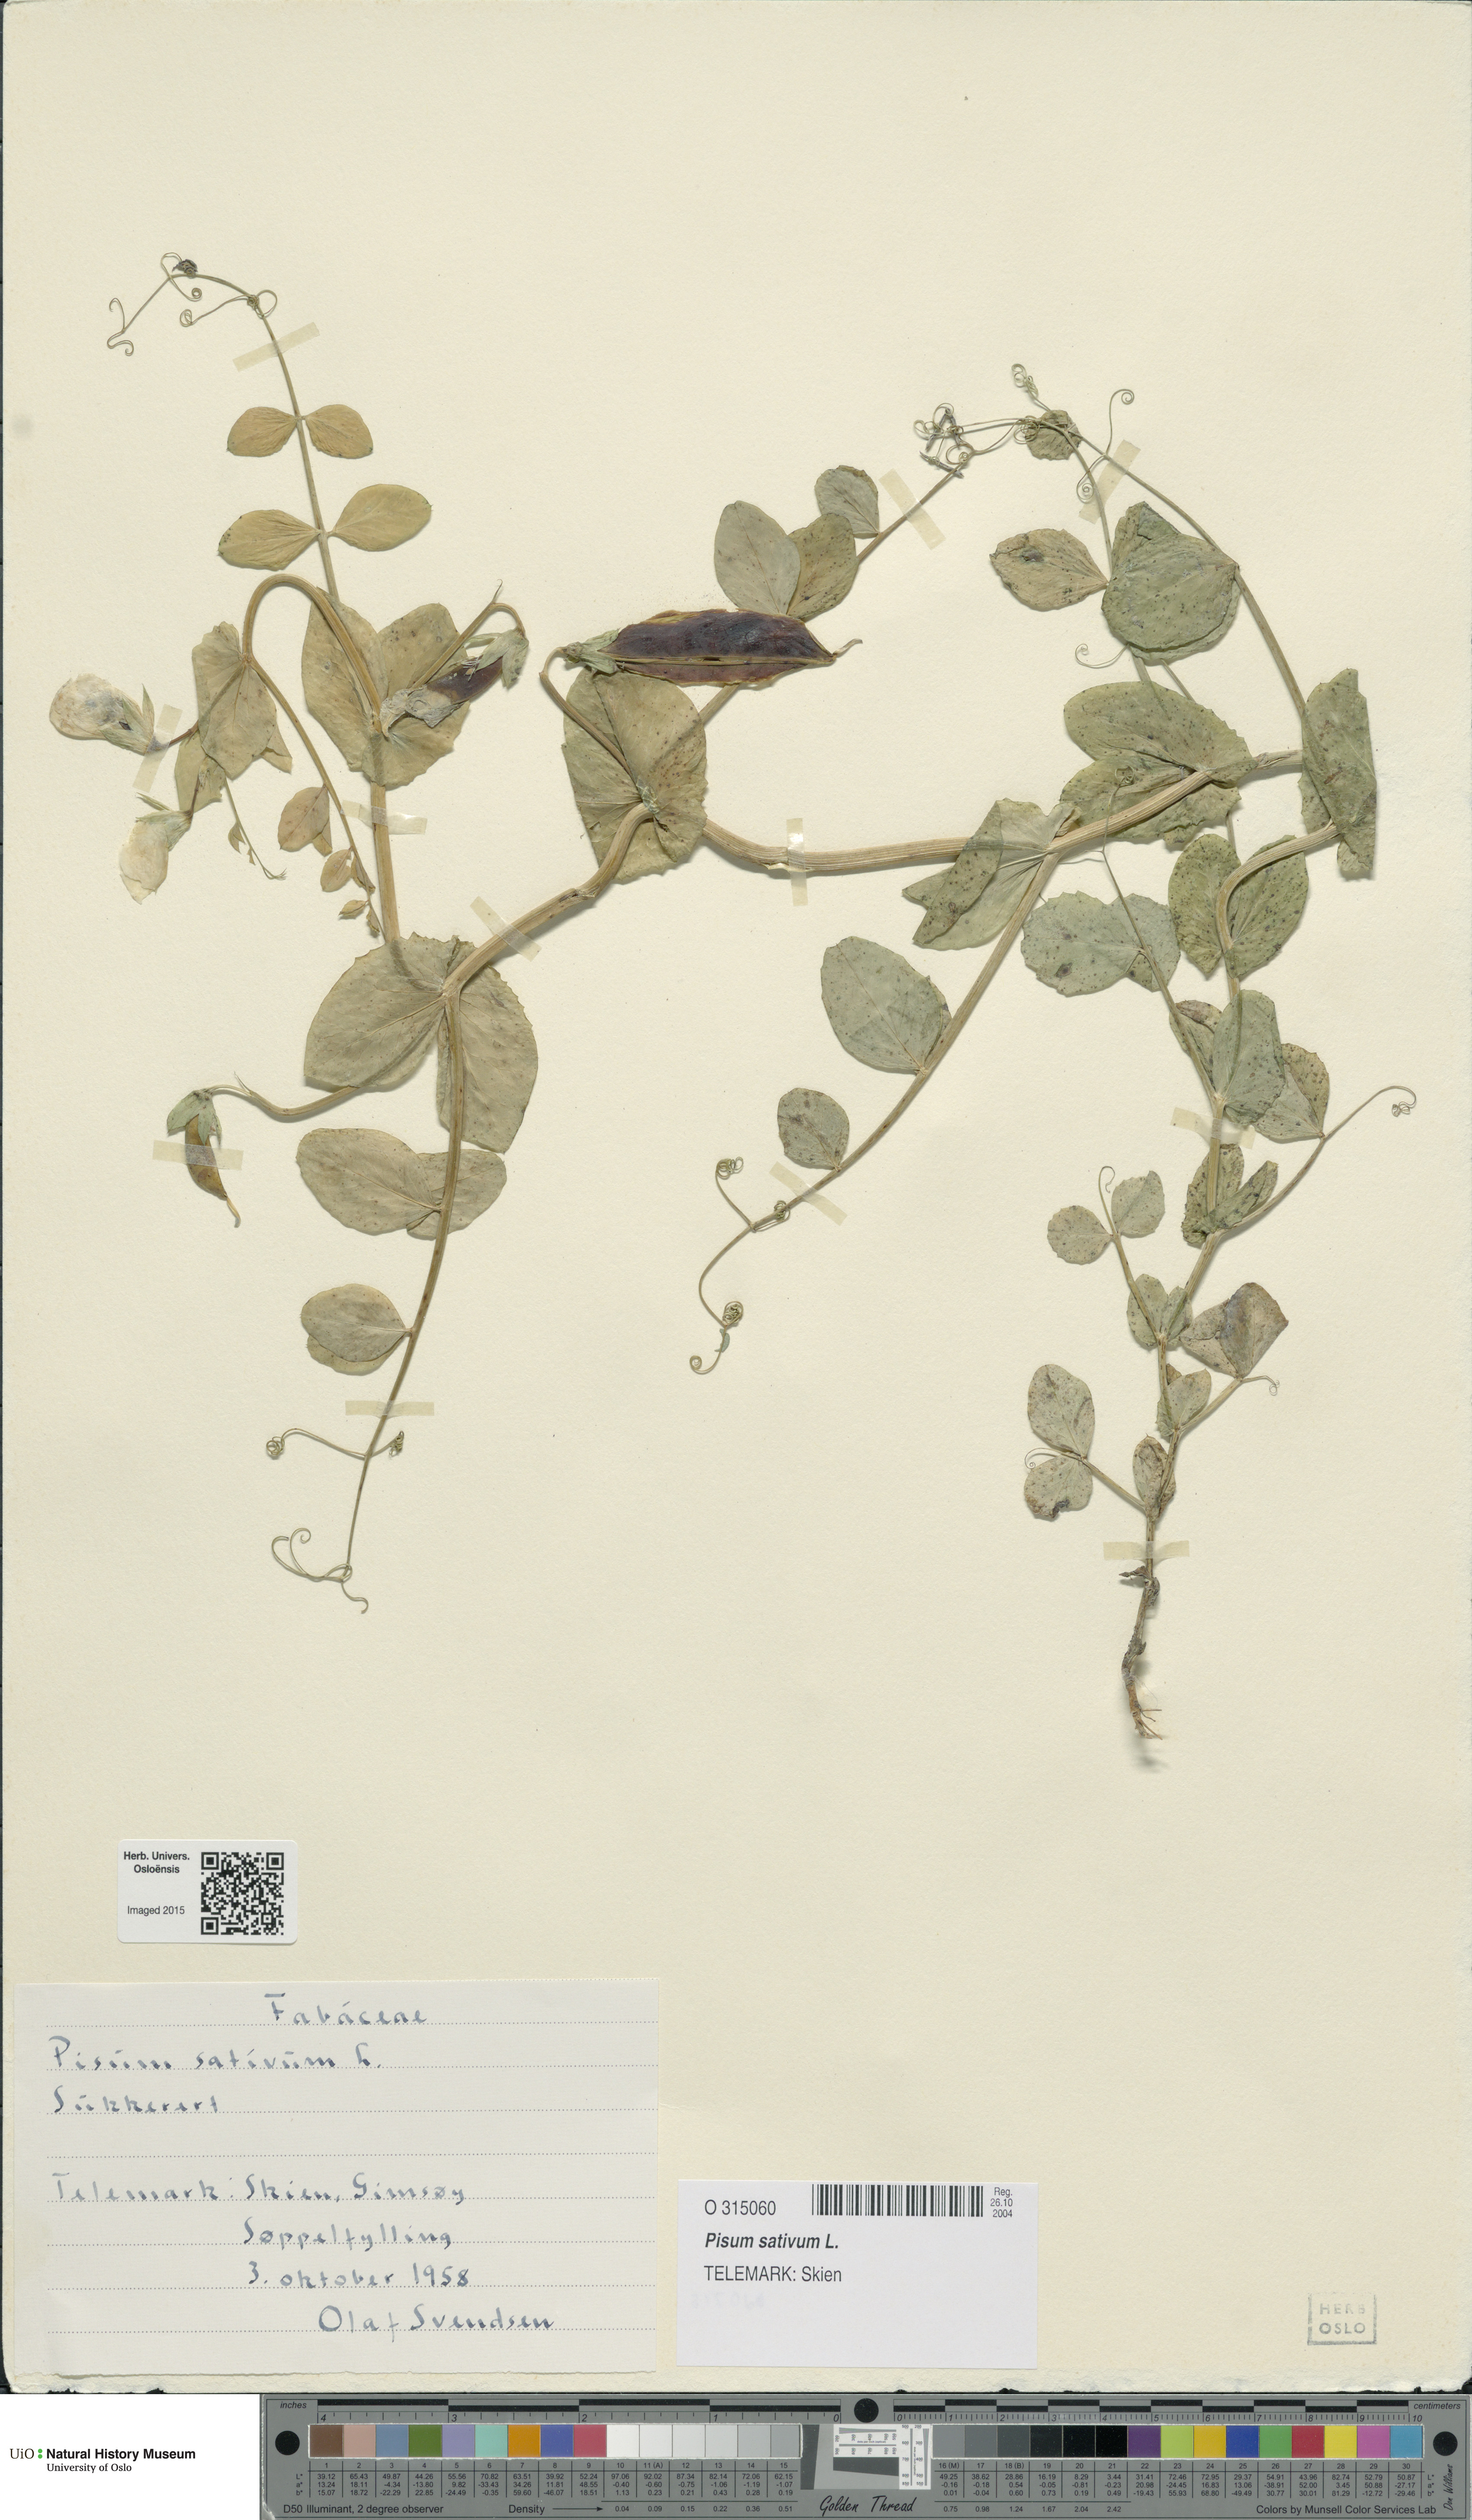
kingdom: Plantae
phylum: Tracheophyta
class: Magnoliopsida
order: Fabales
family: Fabaceae
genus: Lathyrus
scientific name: Lathyrus oleraceus
